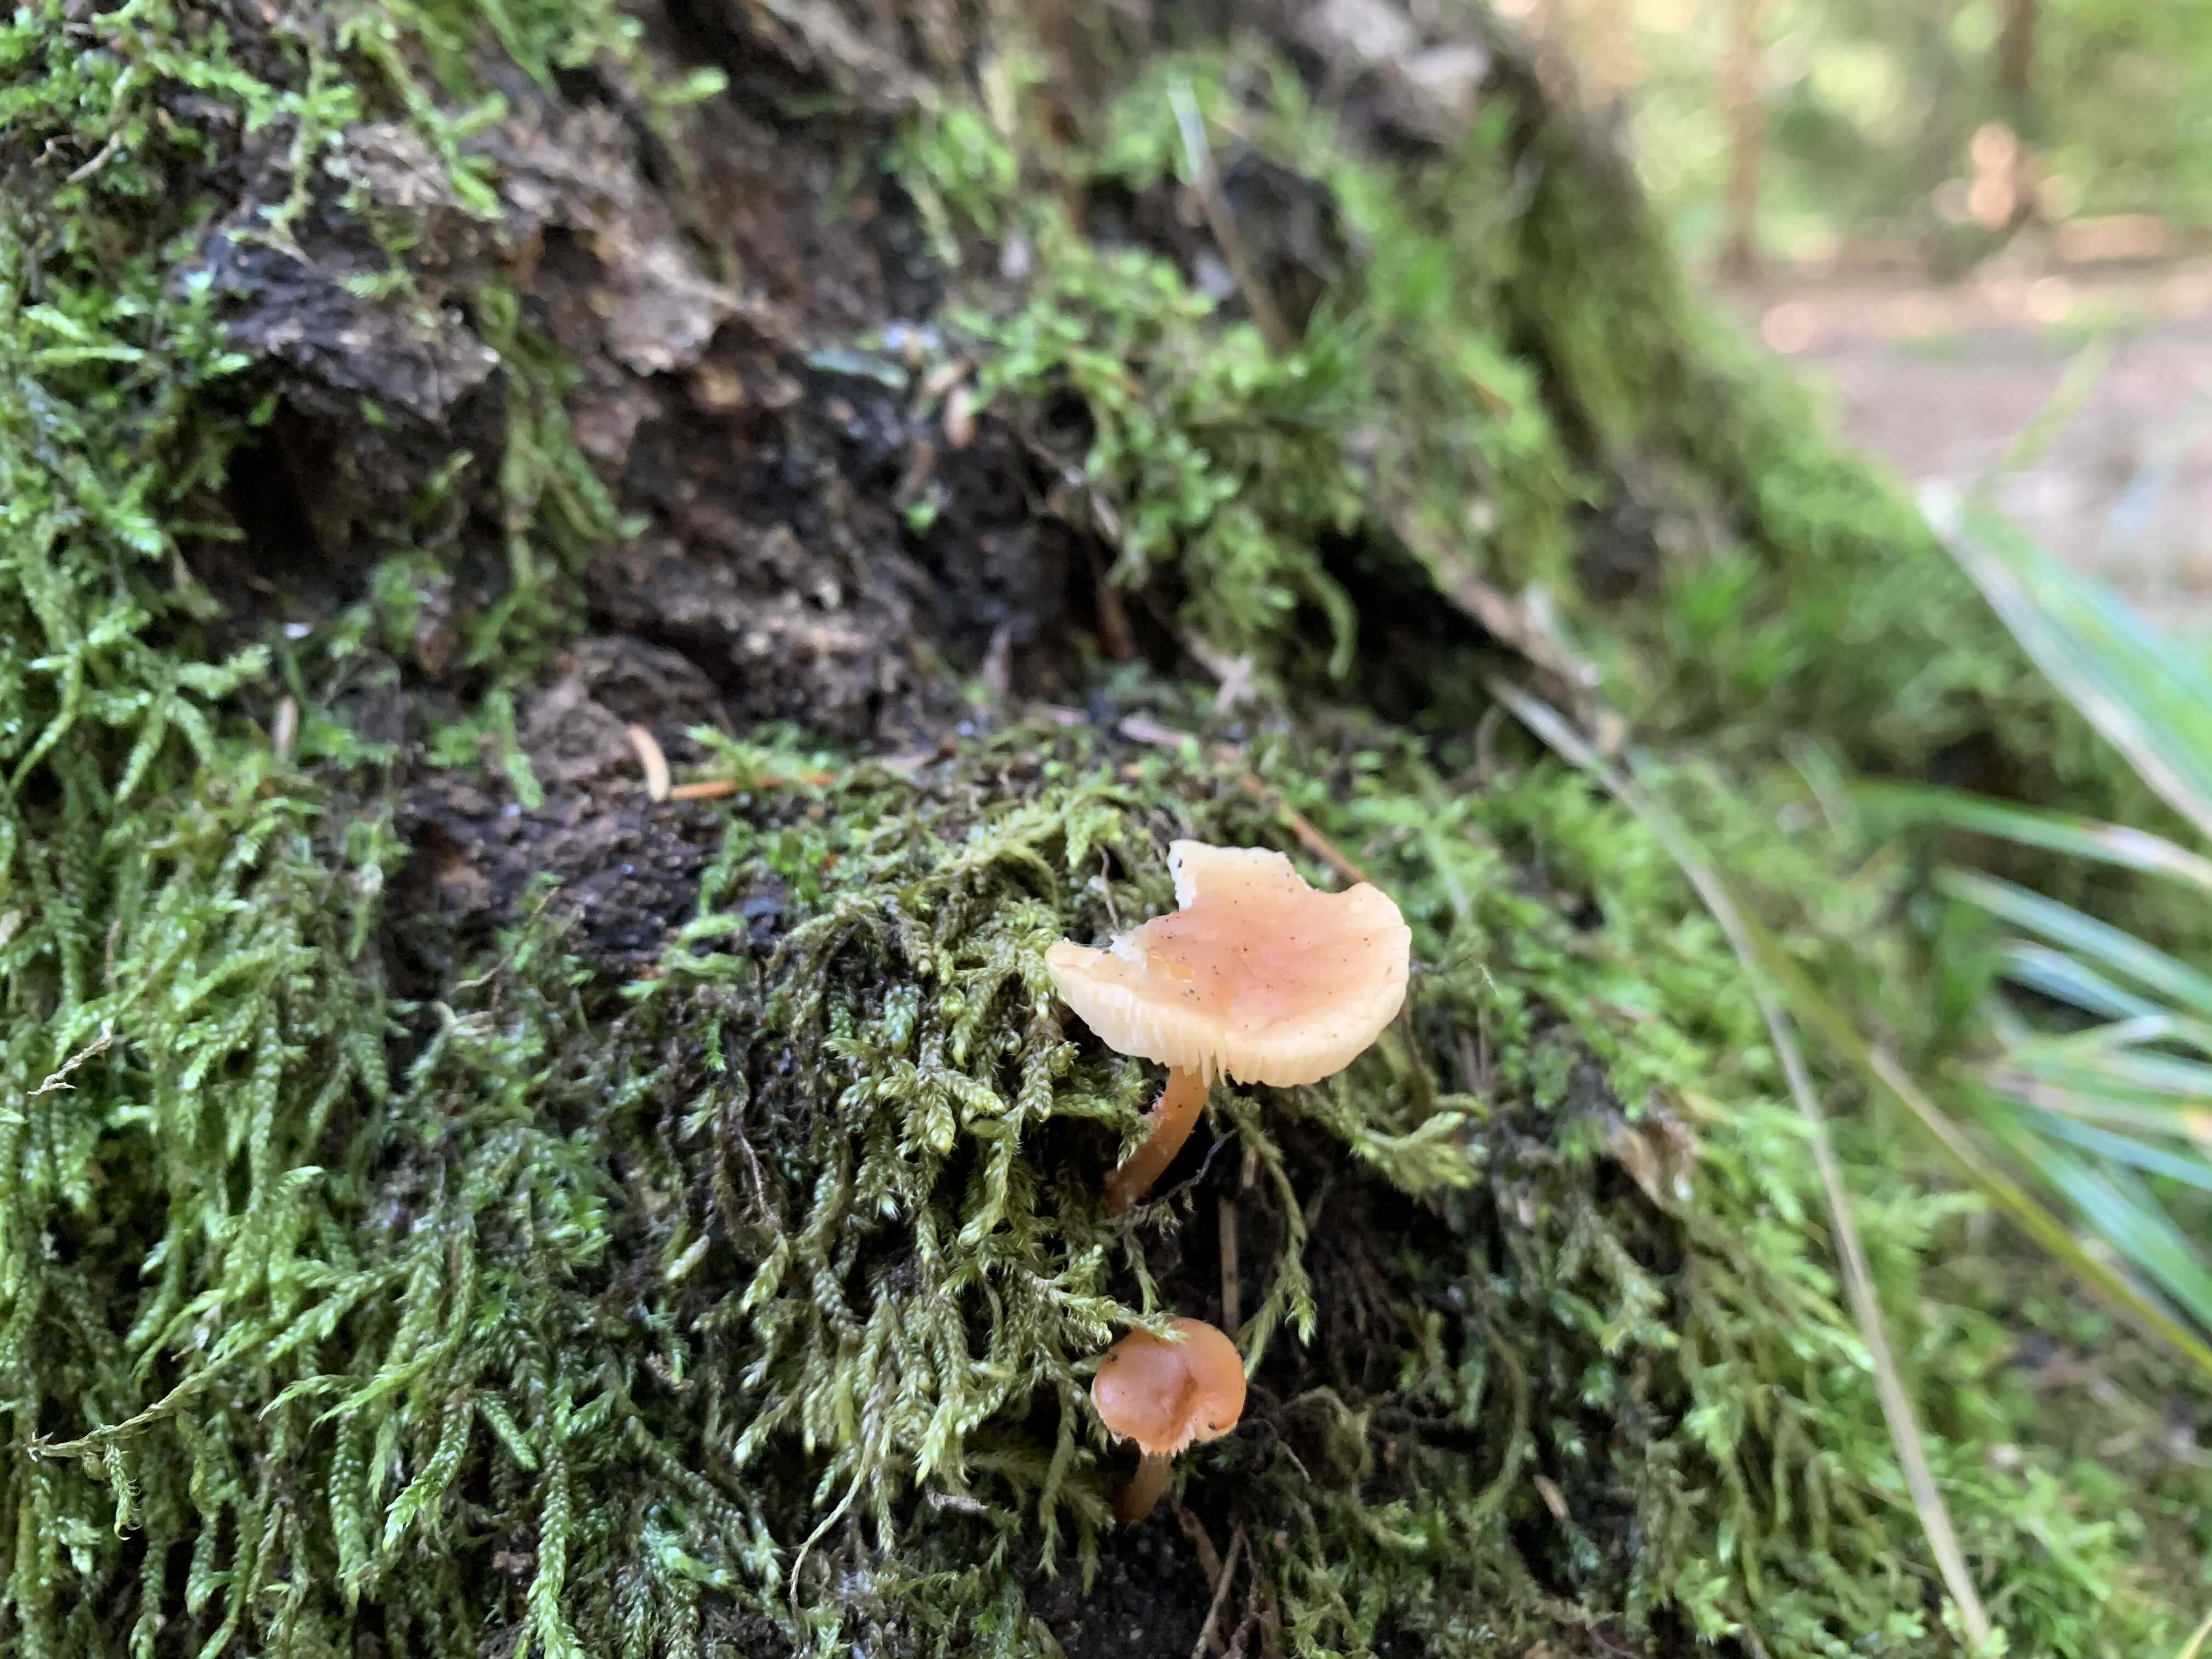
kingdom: Fungi
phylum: Basidiomycota
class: Agaricomycetes
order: Agaricales
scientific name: Agaricales
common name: champignonordenen
